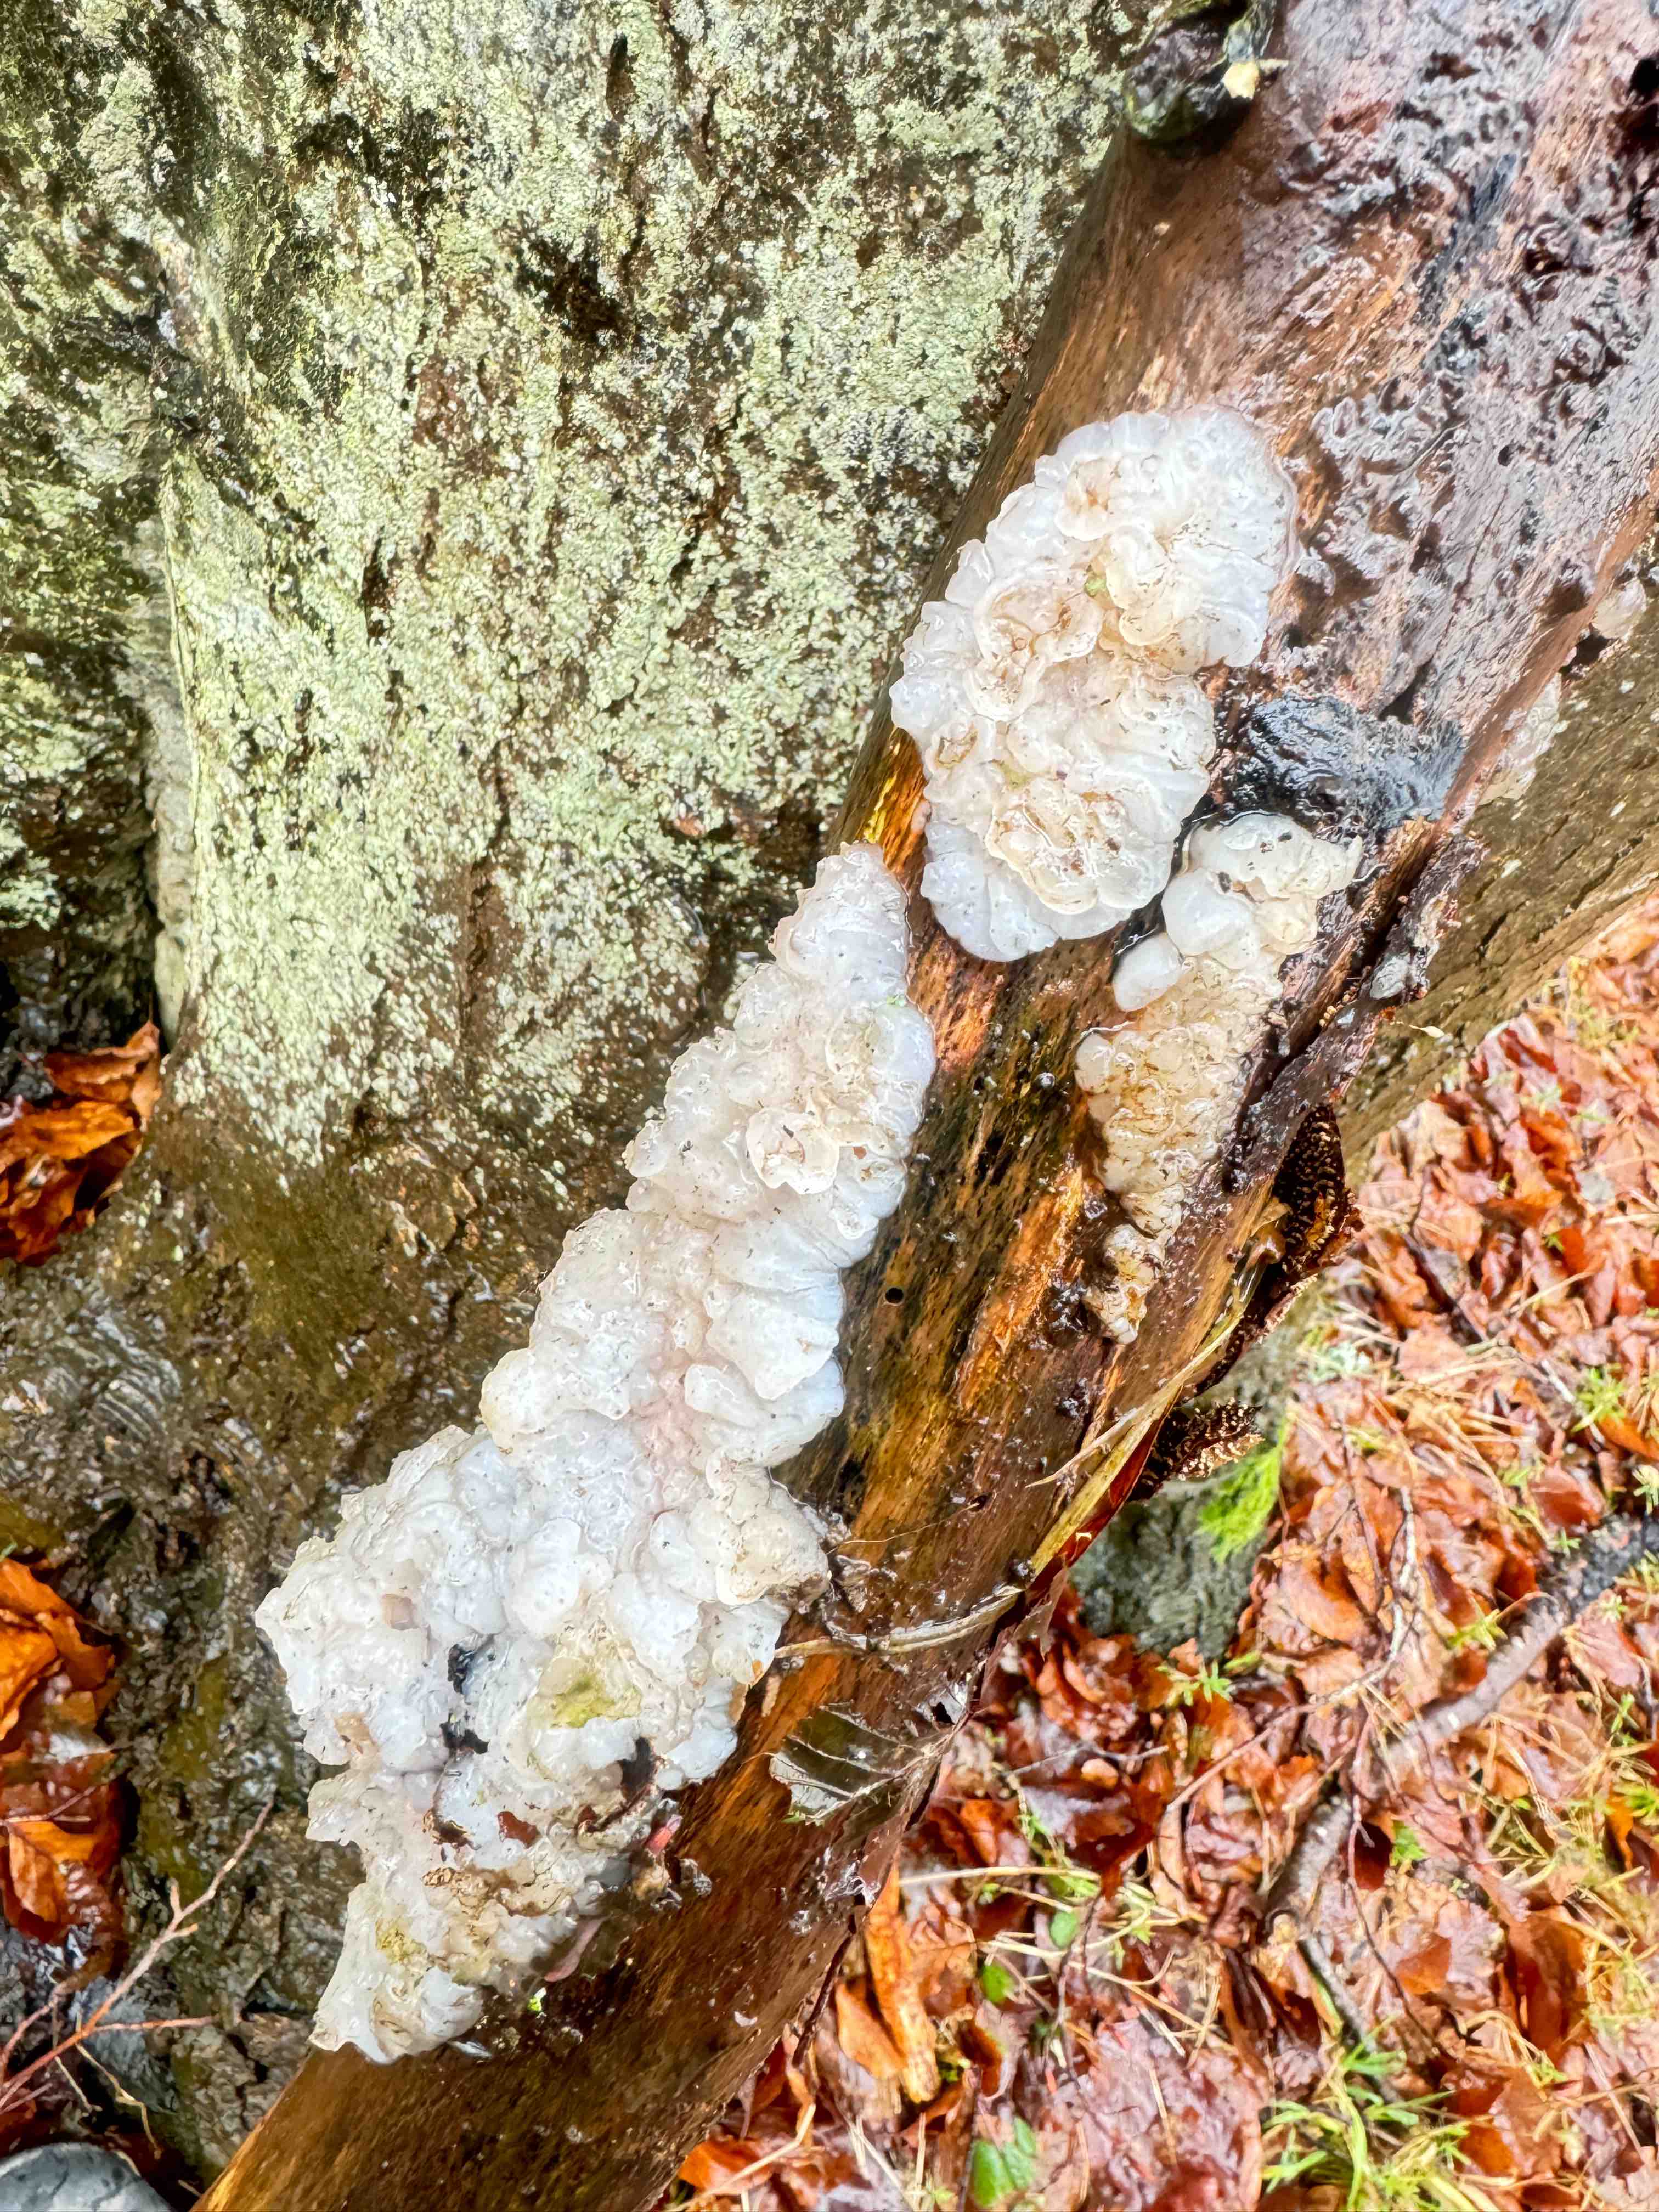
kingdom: Fungi
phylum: Basidiomycota
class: Agaricomycetes
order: Auriculariales
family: Auriculariaceae
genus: Exidia
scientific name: Exidia thuretiana
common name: hvidlig bævretop
